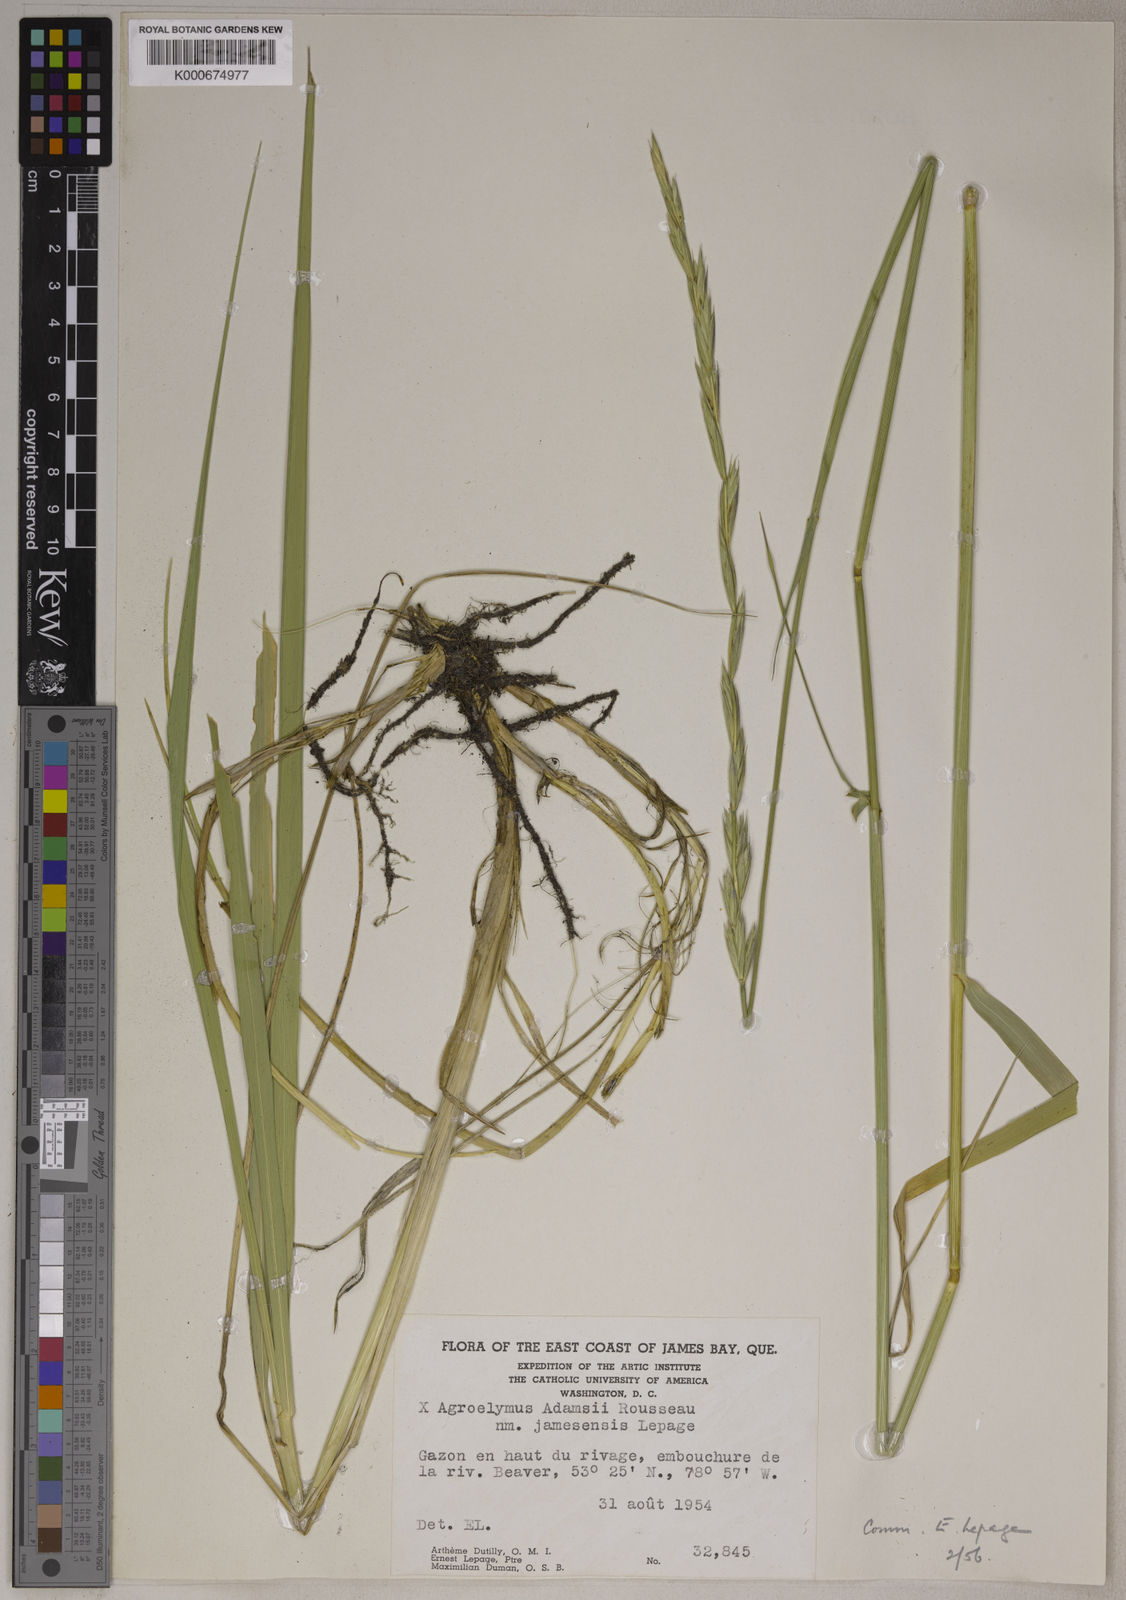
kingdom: Plantae
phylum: Tracheophyta
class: Liliopsida
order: Poales
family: Poaceae
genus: Elymus
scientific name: Elymus
